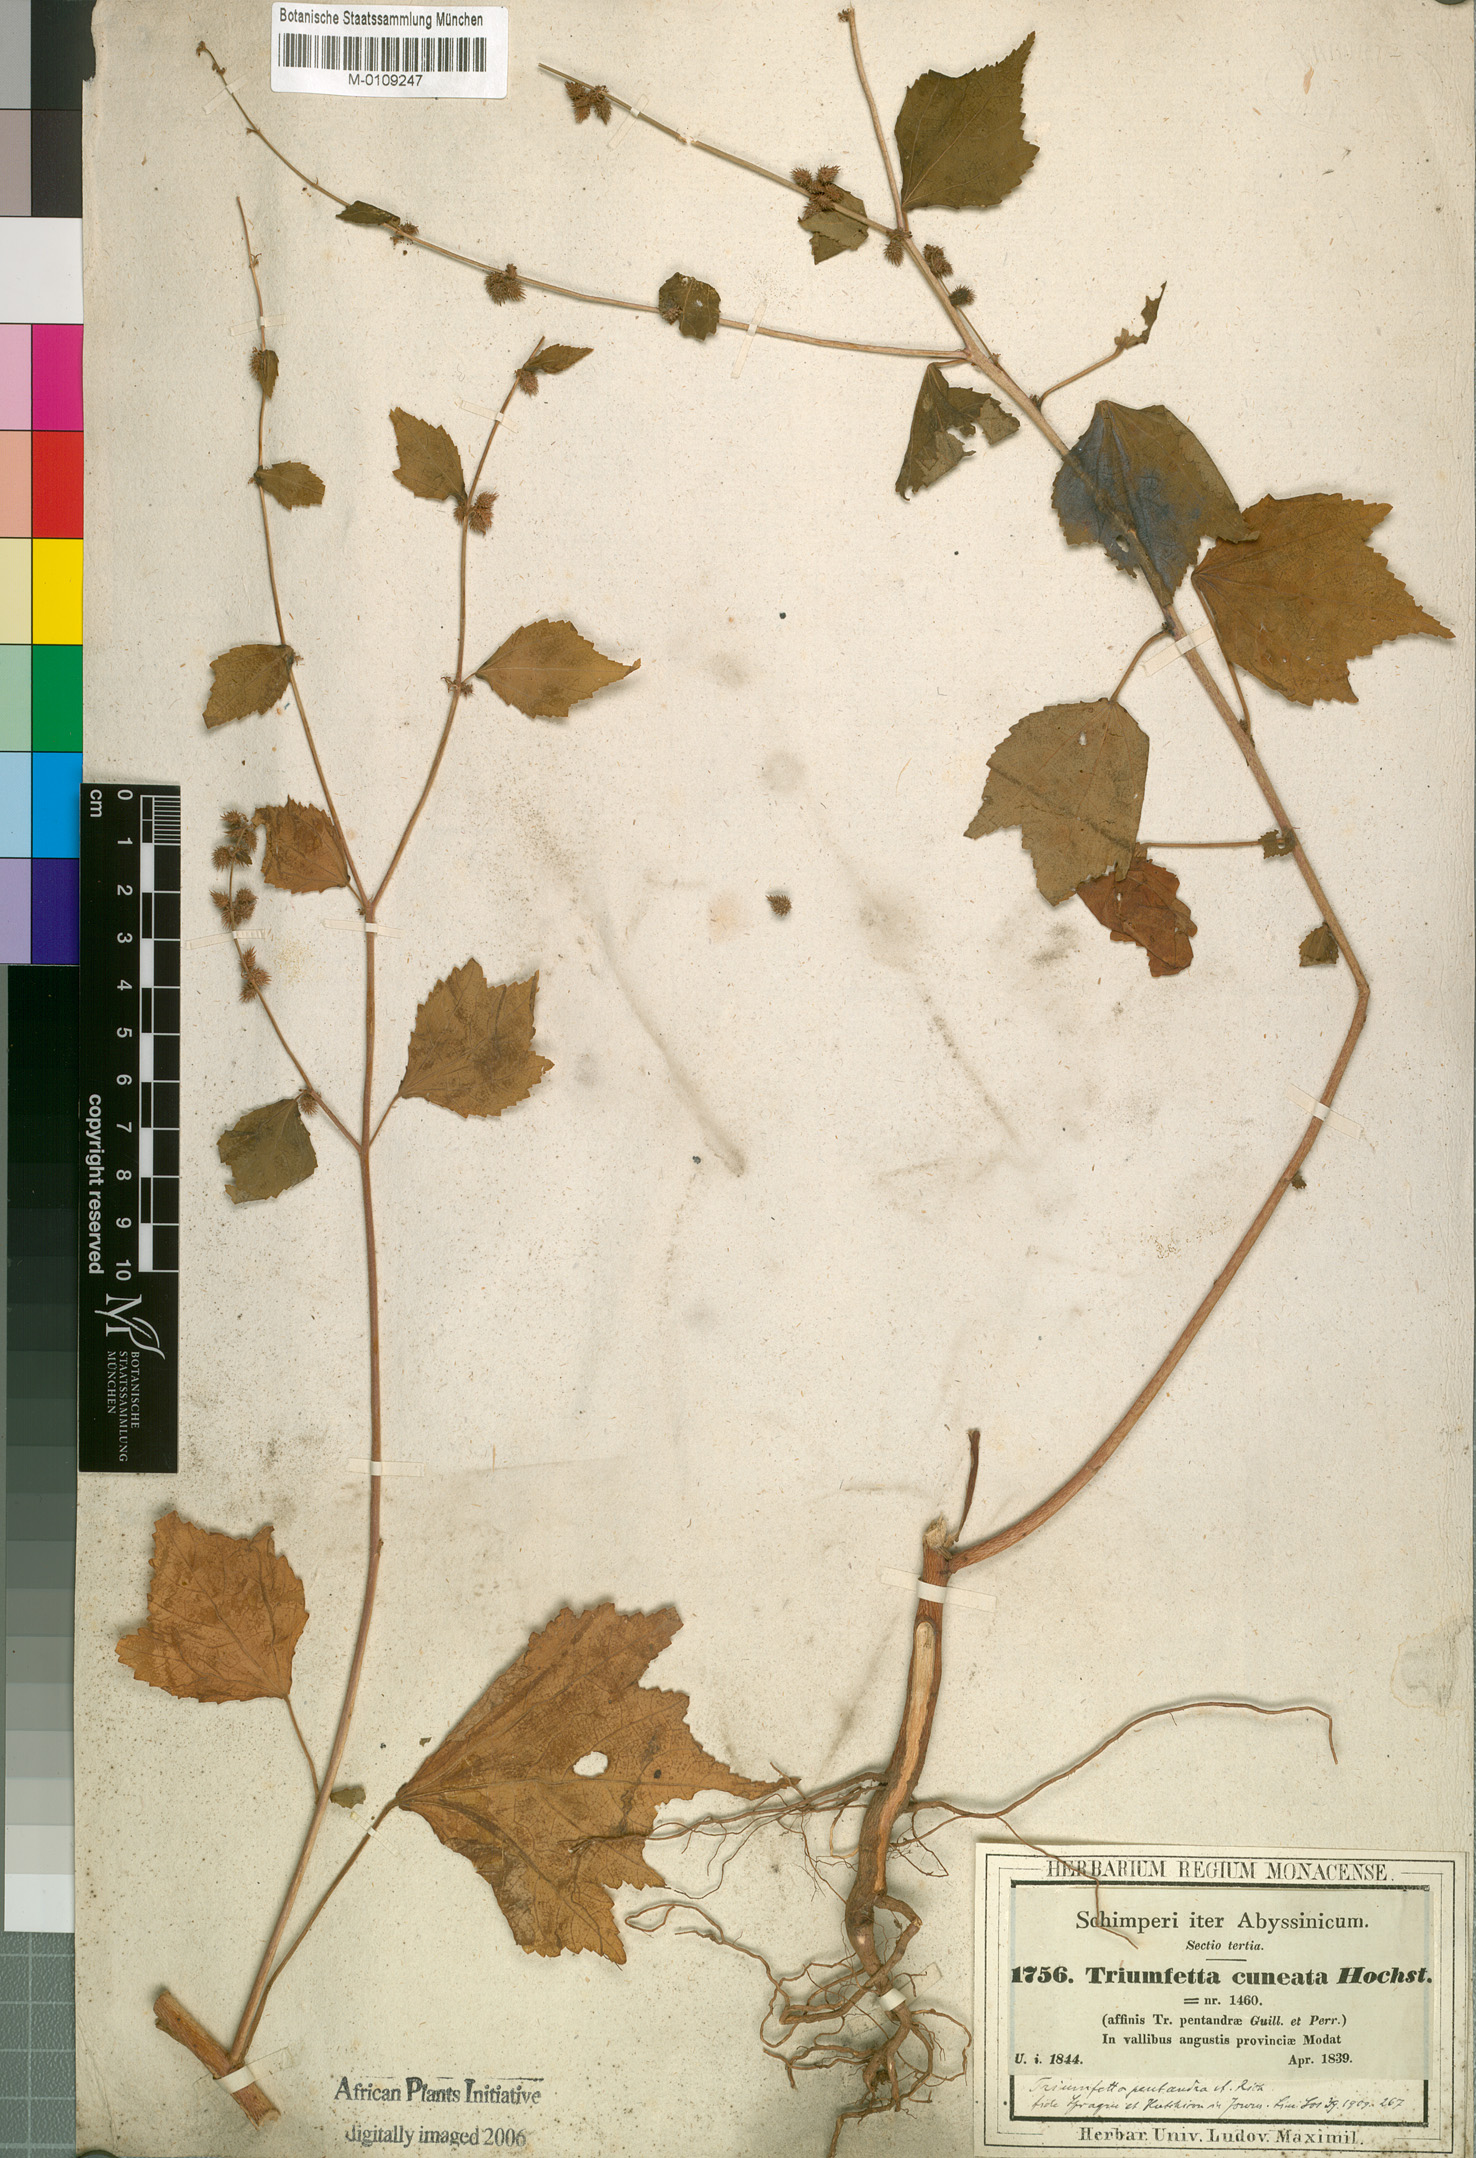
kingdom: Plantae
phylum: Tracheophyta
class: Magnoliopsida
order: Malvales
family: Malvaceae
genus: Triumfetta
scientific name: Triumfetta pentandra
